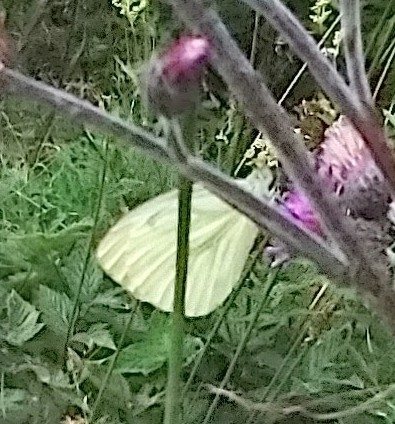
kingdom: Animalia
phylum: Arthropoda
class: Insecta
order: Lepidoptera
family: Pieridae
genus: Pieris
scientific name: Pieris napi
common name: Grønåret kålsommerfugl
